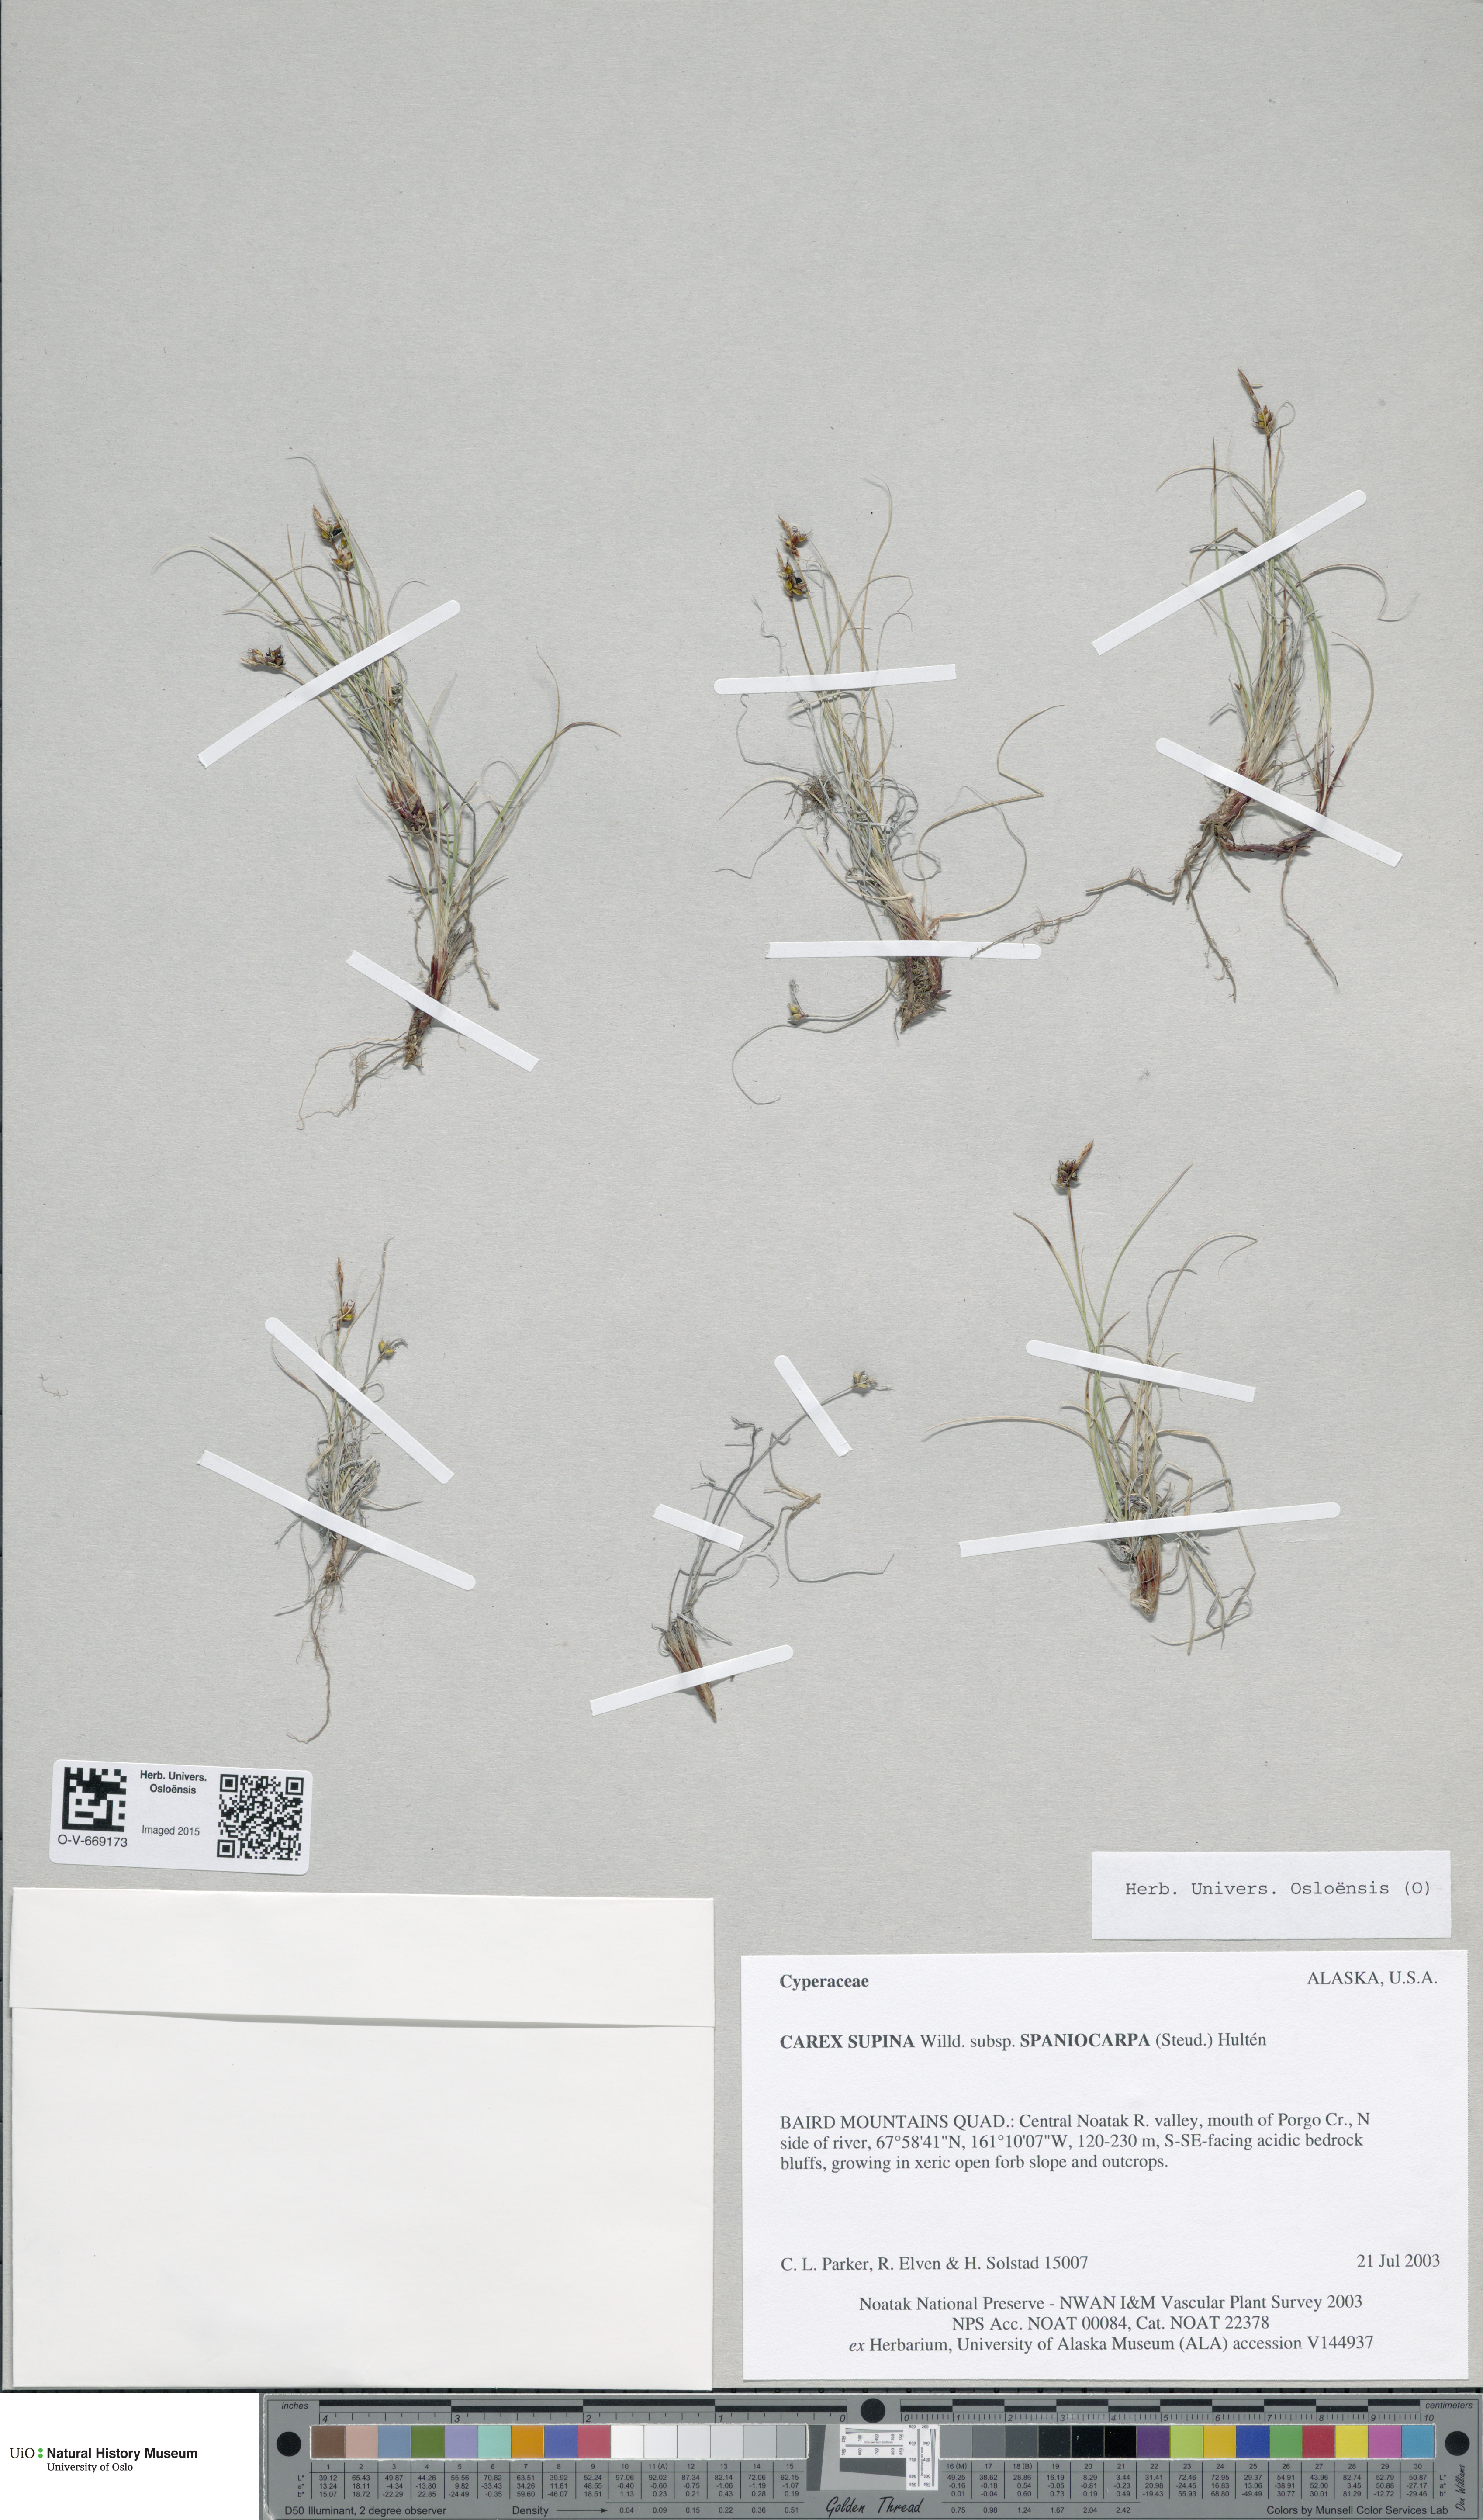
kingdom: Plantae
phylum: Tracheophyta
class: Liliopsida
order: Poales
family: Cyperaceae
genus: Carex
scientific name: Carex supina
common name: Lying-back sedge
